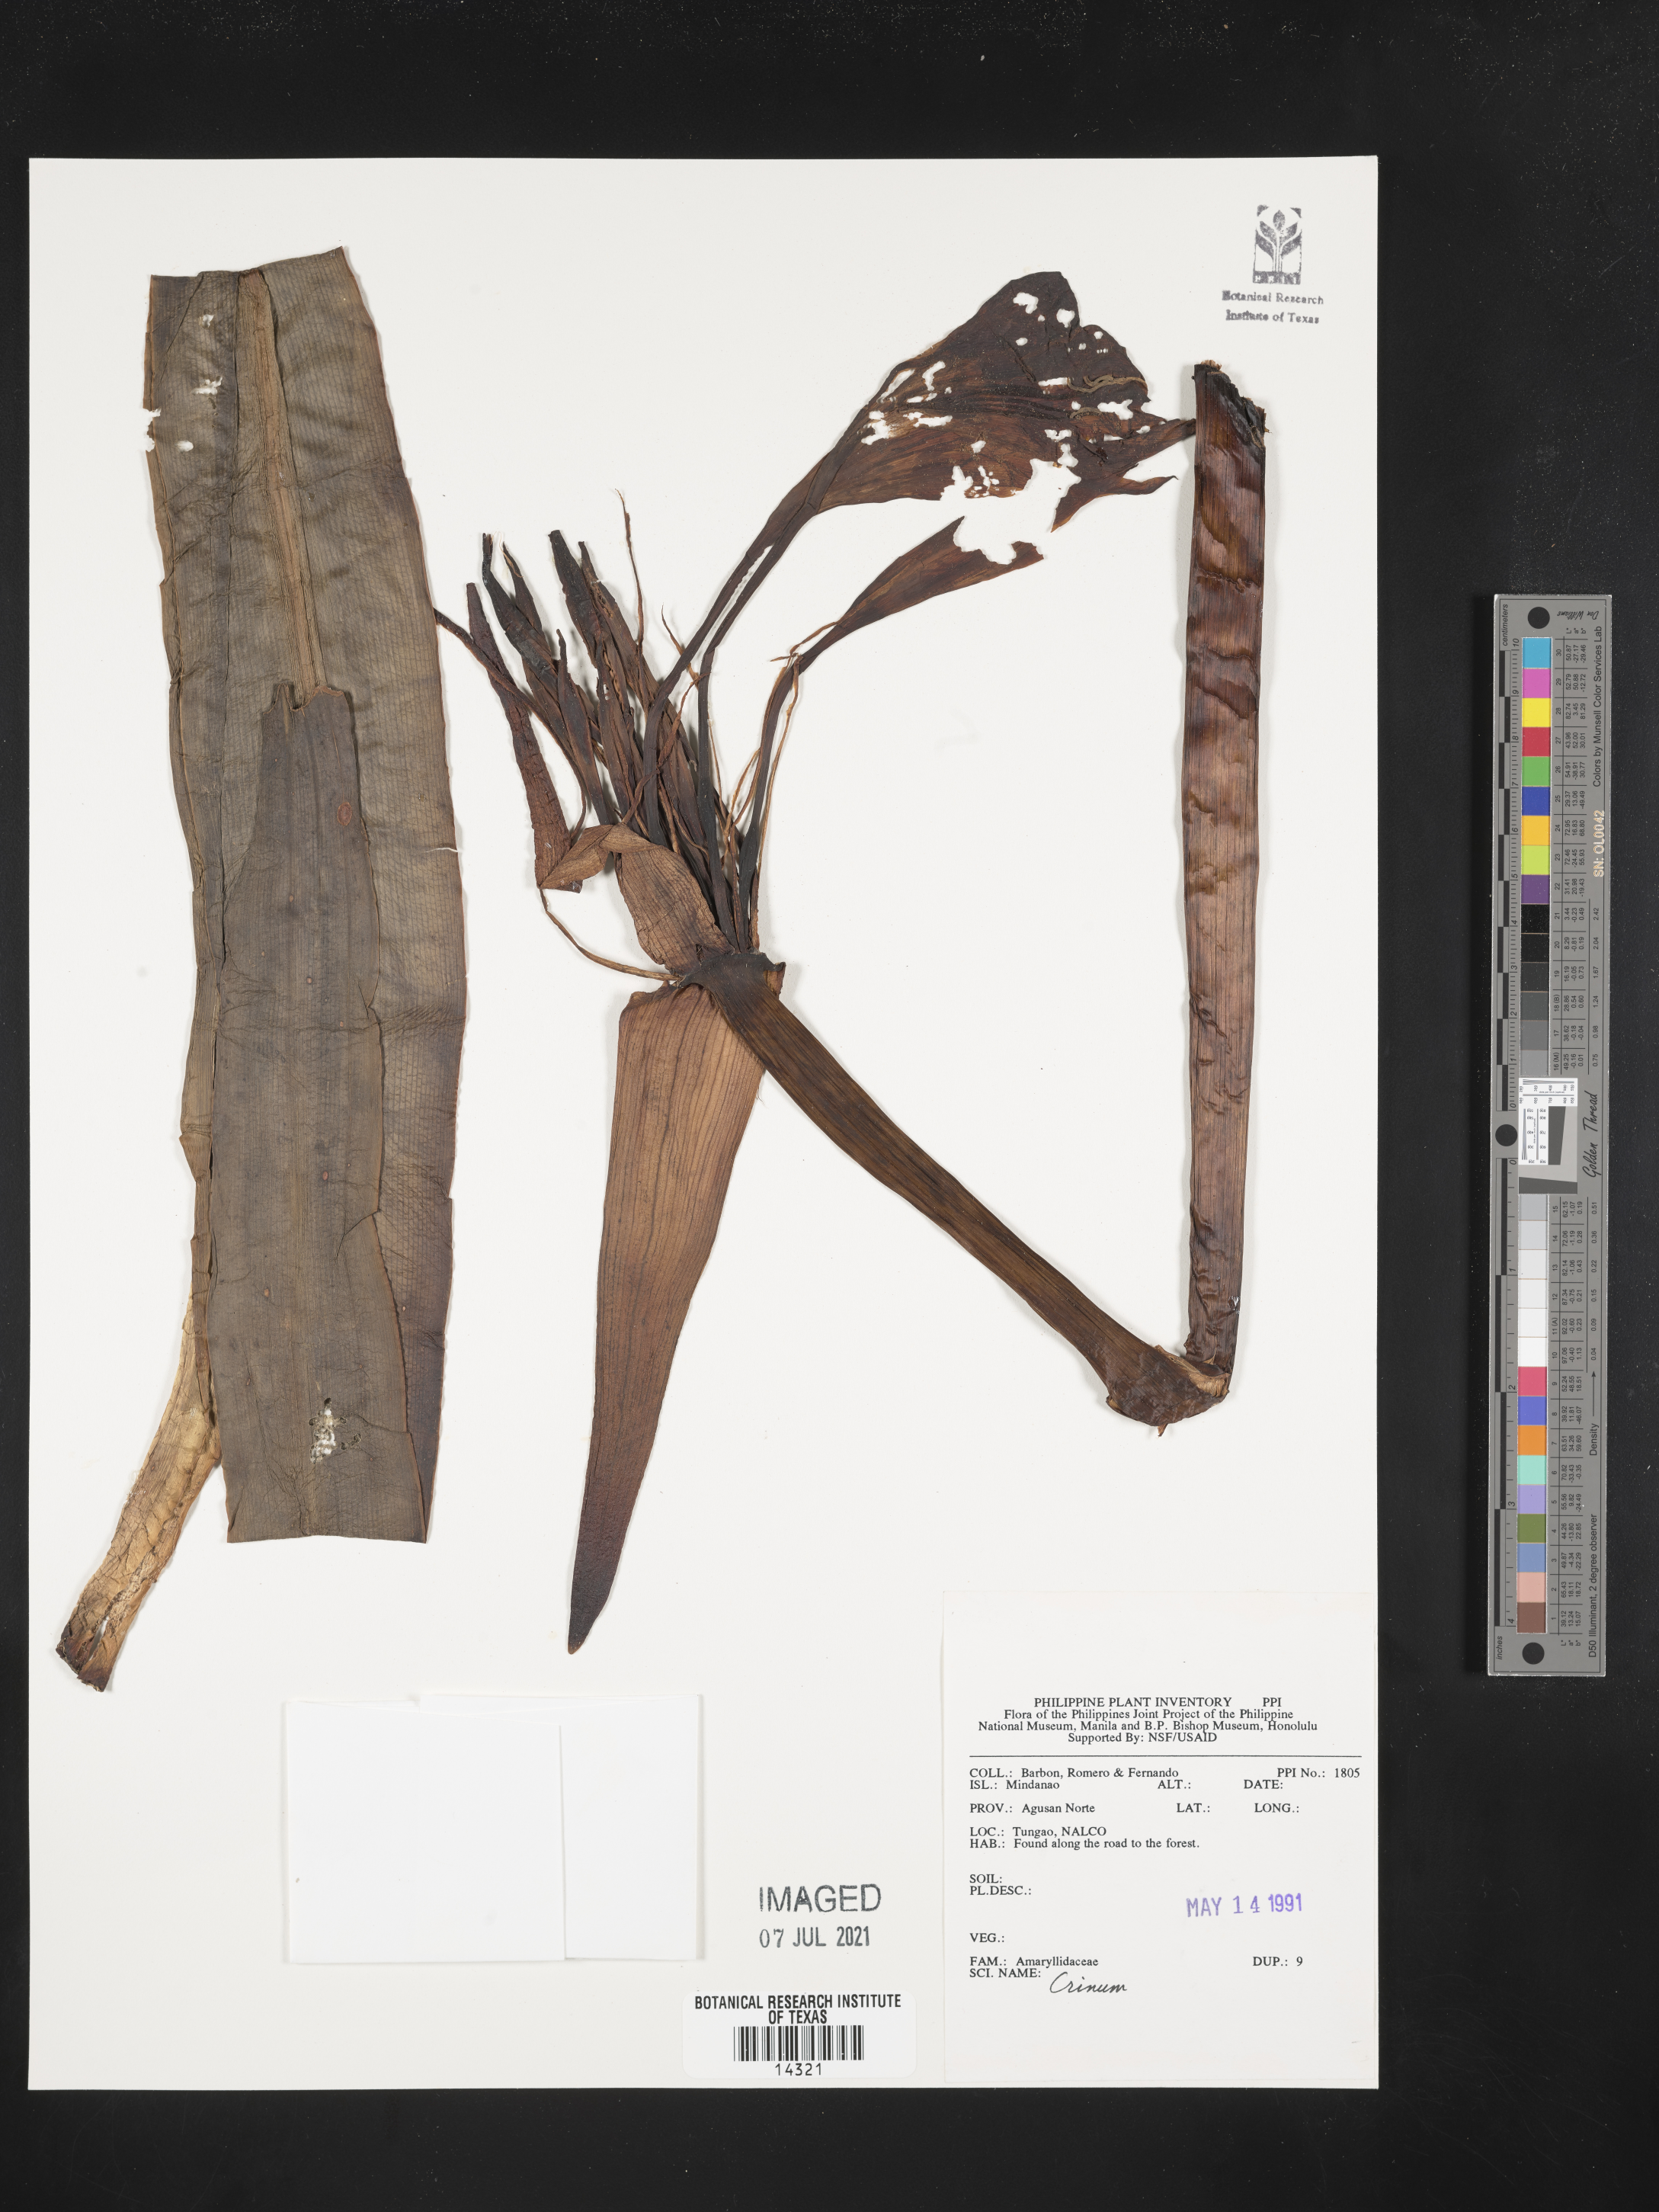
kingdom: Plantae
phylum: Tracheophyta
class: Liliopsida
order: Asparagales
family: Amaryllidaceae
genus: Crinum
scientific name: Crinum
